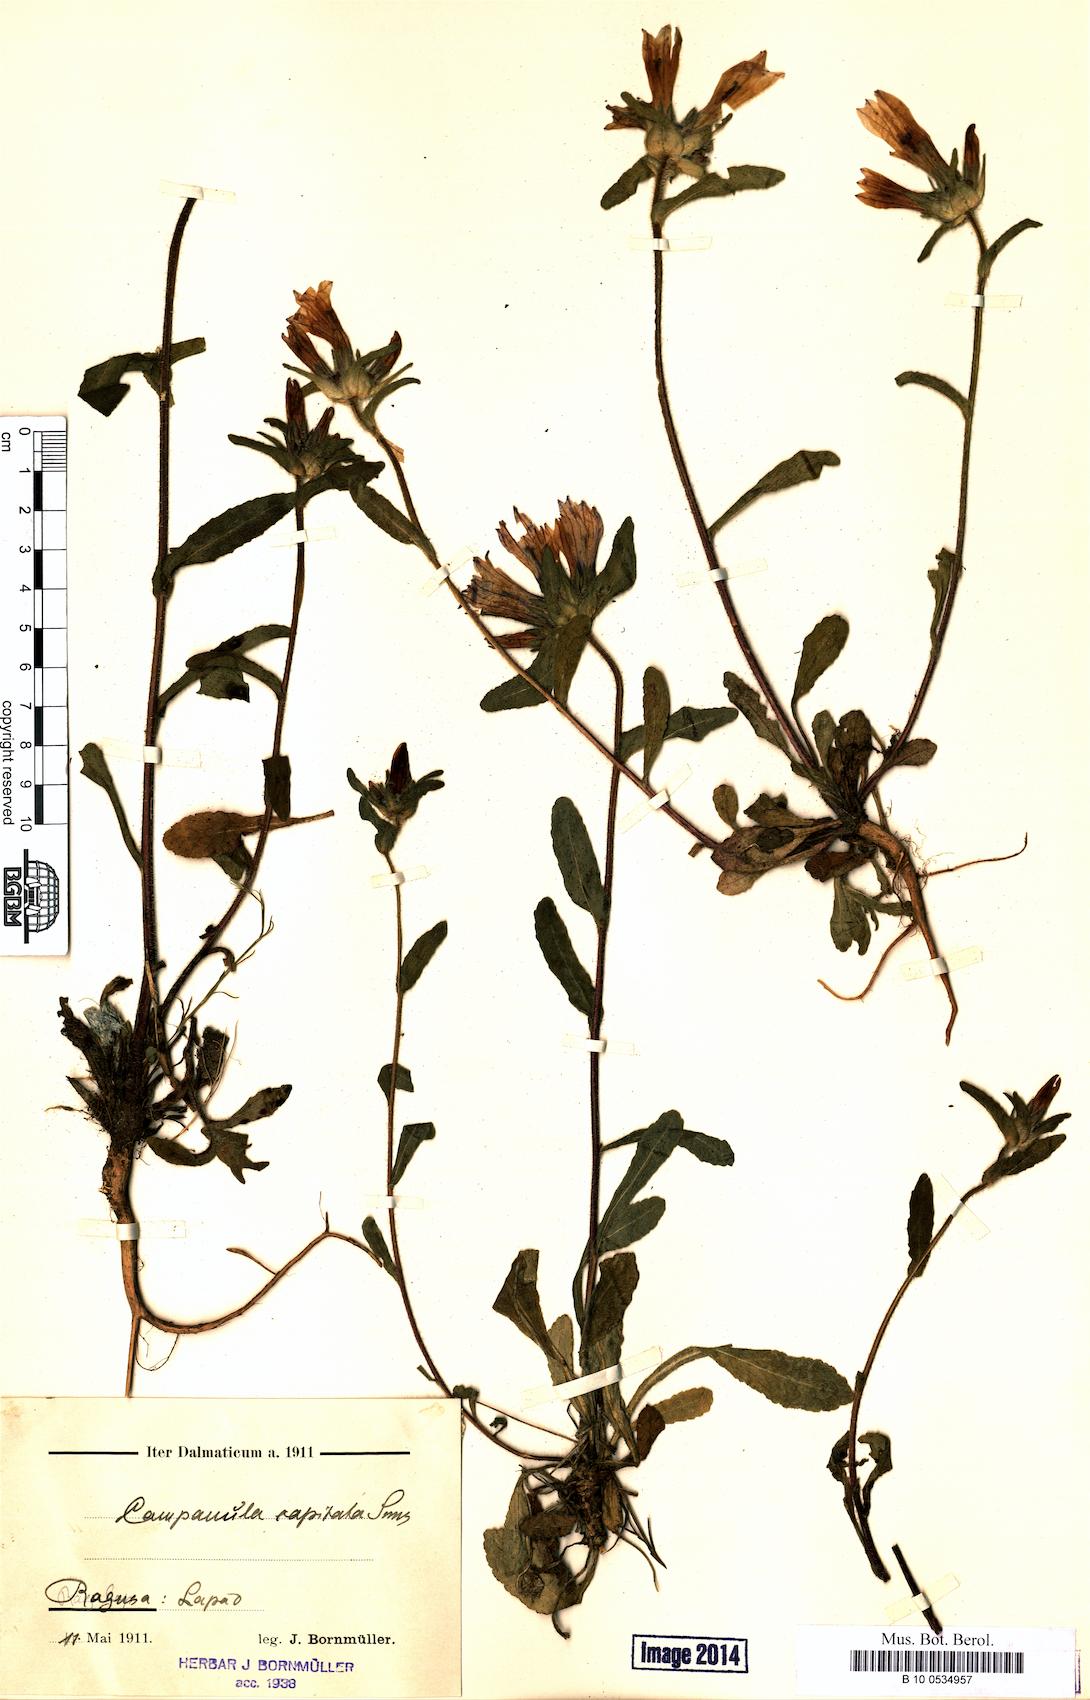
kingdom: Plantae
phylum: Tracheophyta
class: Magnoliopsida
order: Asterales
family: Campanulaceae
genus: Campanula
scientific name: Campanula lingulata
